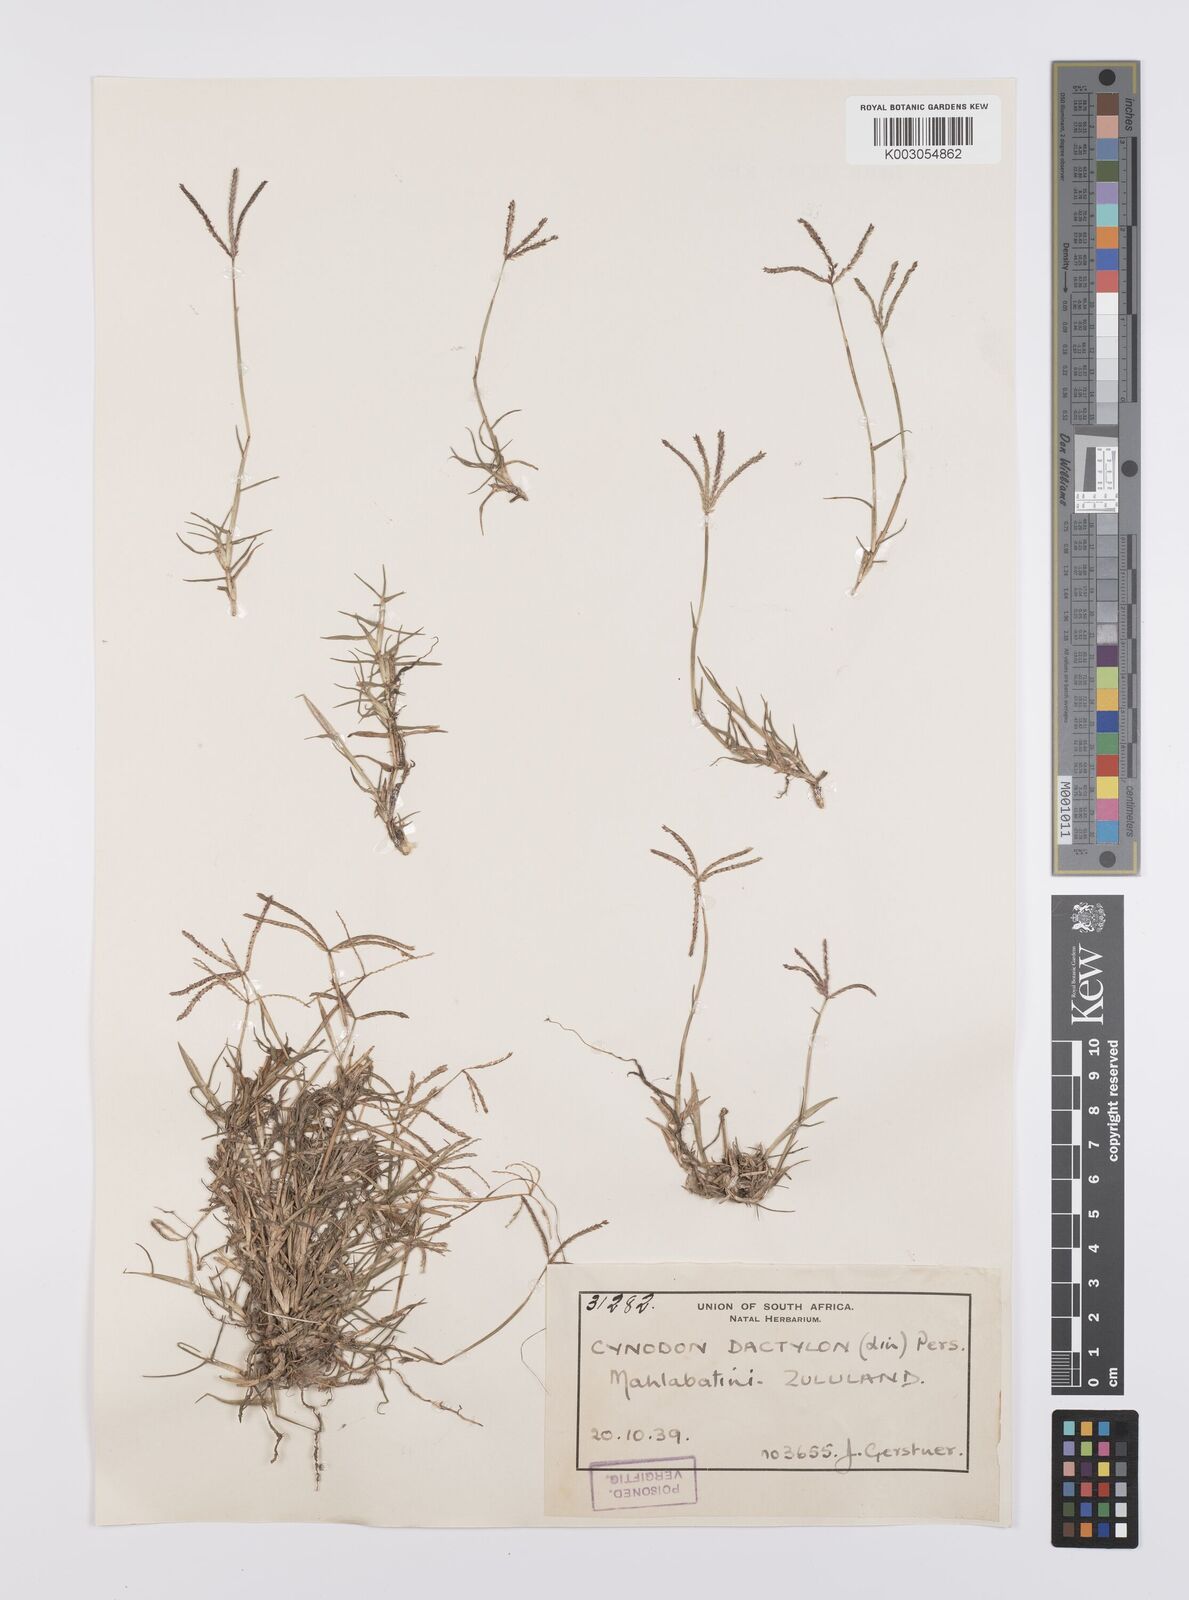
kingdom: Plantae
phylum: Tracheophyta
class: Liliopsida
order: Poales
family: Poaceae
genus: Cynodon
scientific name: Cynodon dactylon
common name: Bermuda grass
